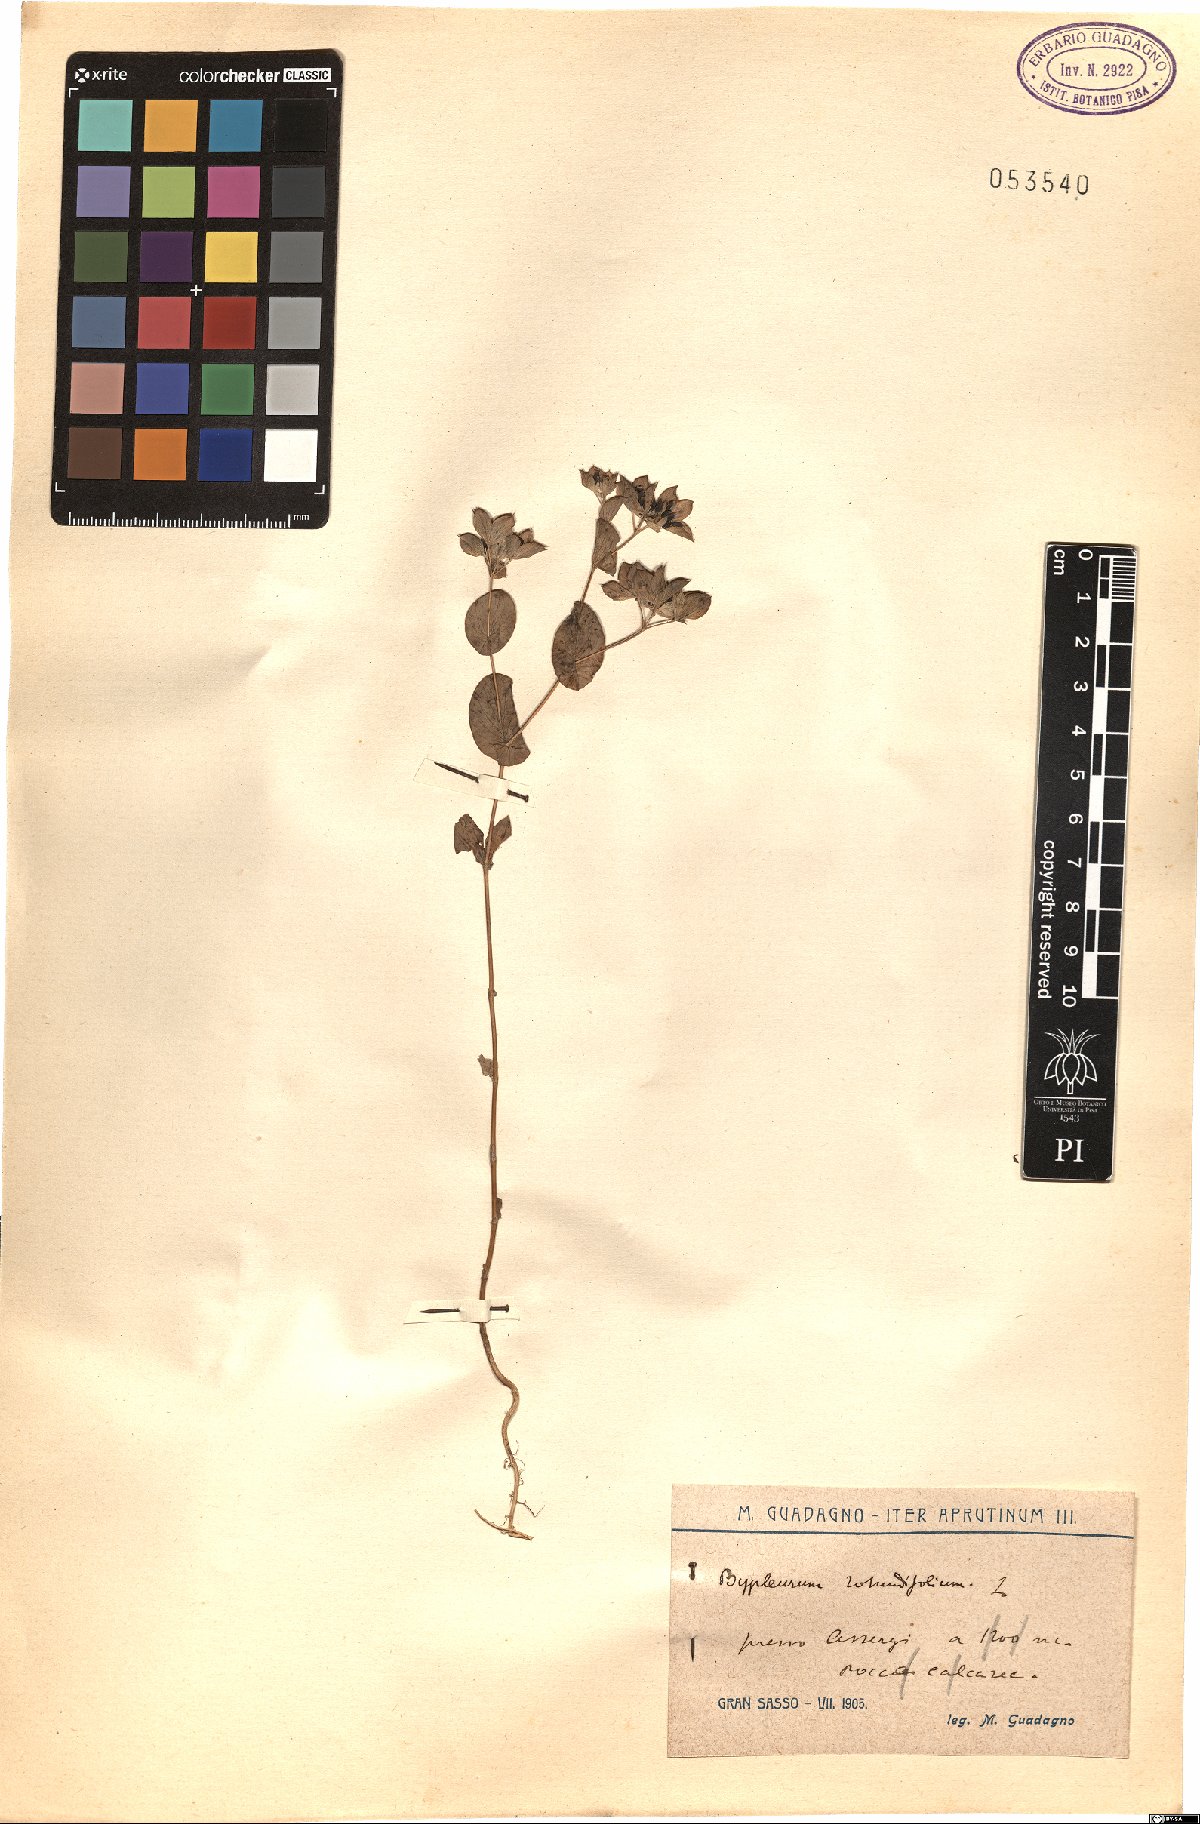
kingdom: Plantae
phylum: Tracheophyta
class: Magnoliopsida
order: Apiales
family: Apiaceae
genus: Bupleurum
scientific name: Bupleurum rotundifolium
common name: Thorow-wax
